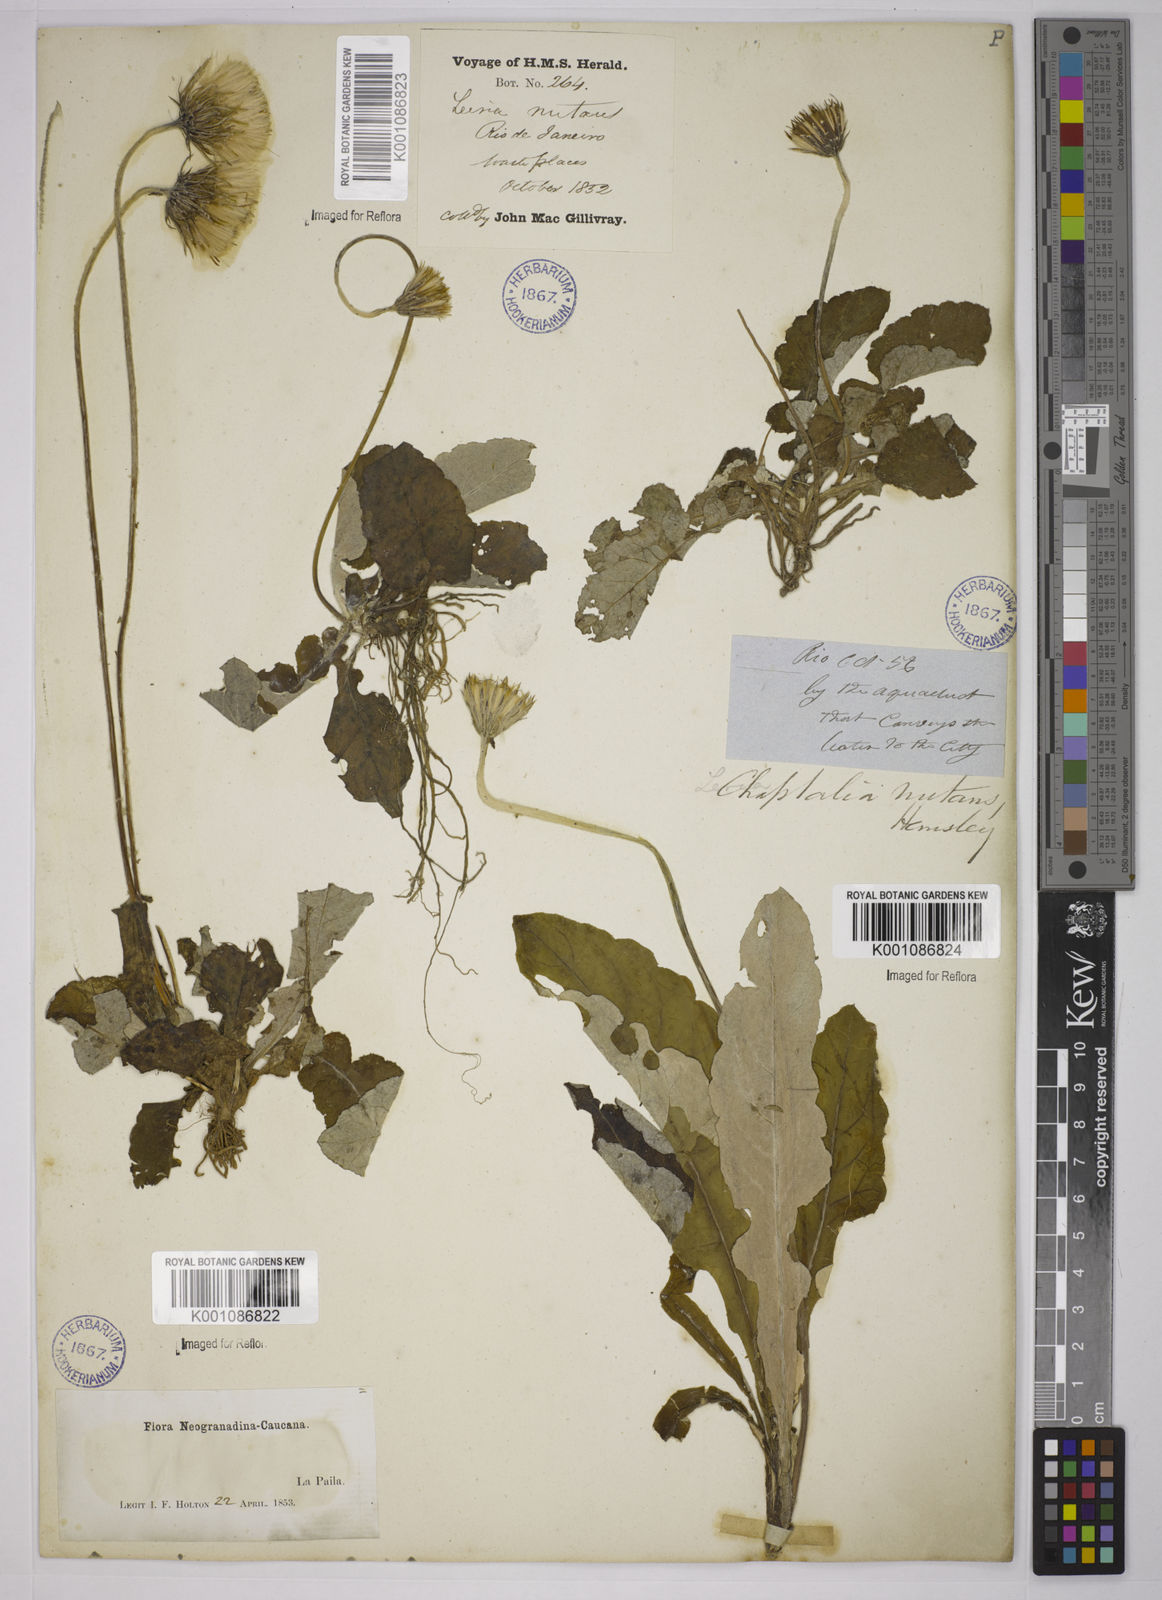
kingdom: Plantae
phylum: Tracheophyta
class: Magnoliopsida
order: Asterales
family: Asteraceae
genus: Chaptalia
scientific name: Chaptalia nutans
